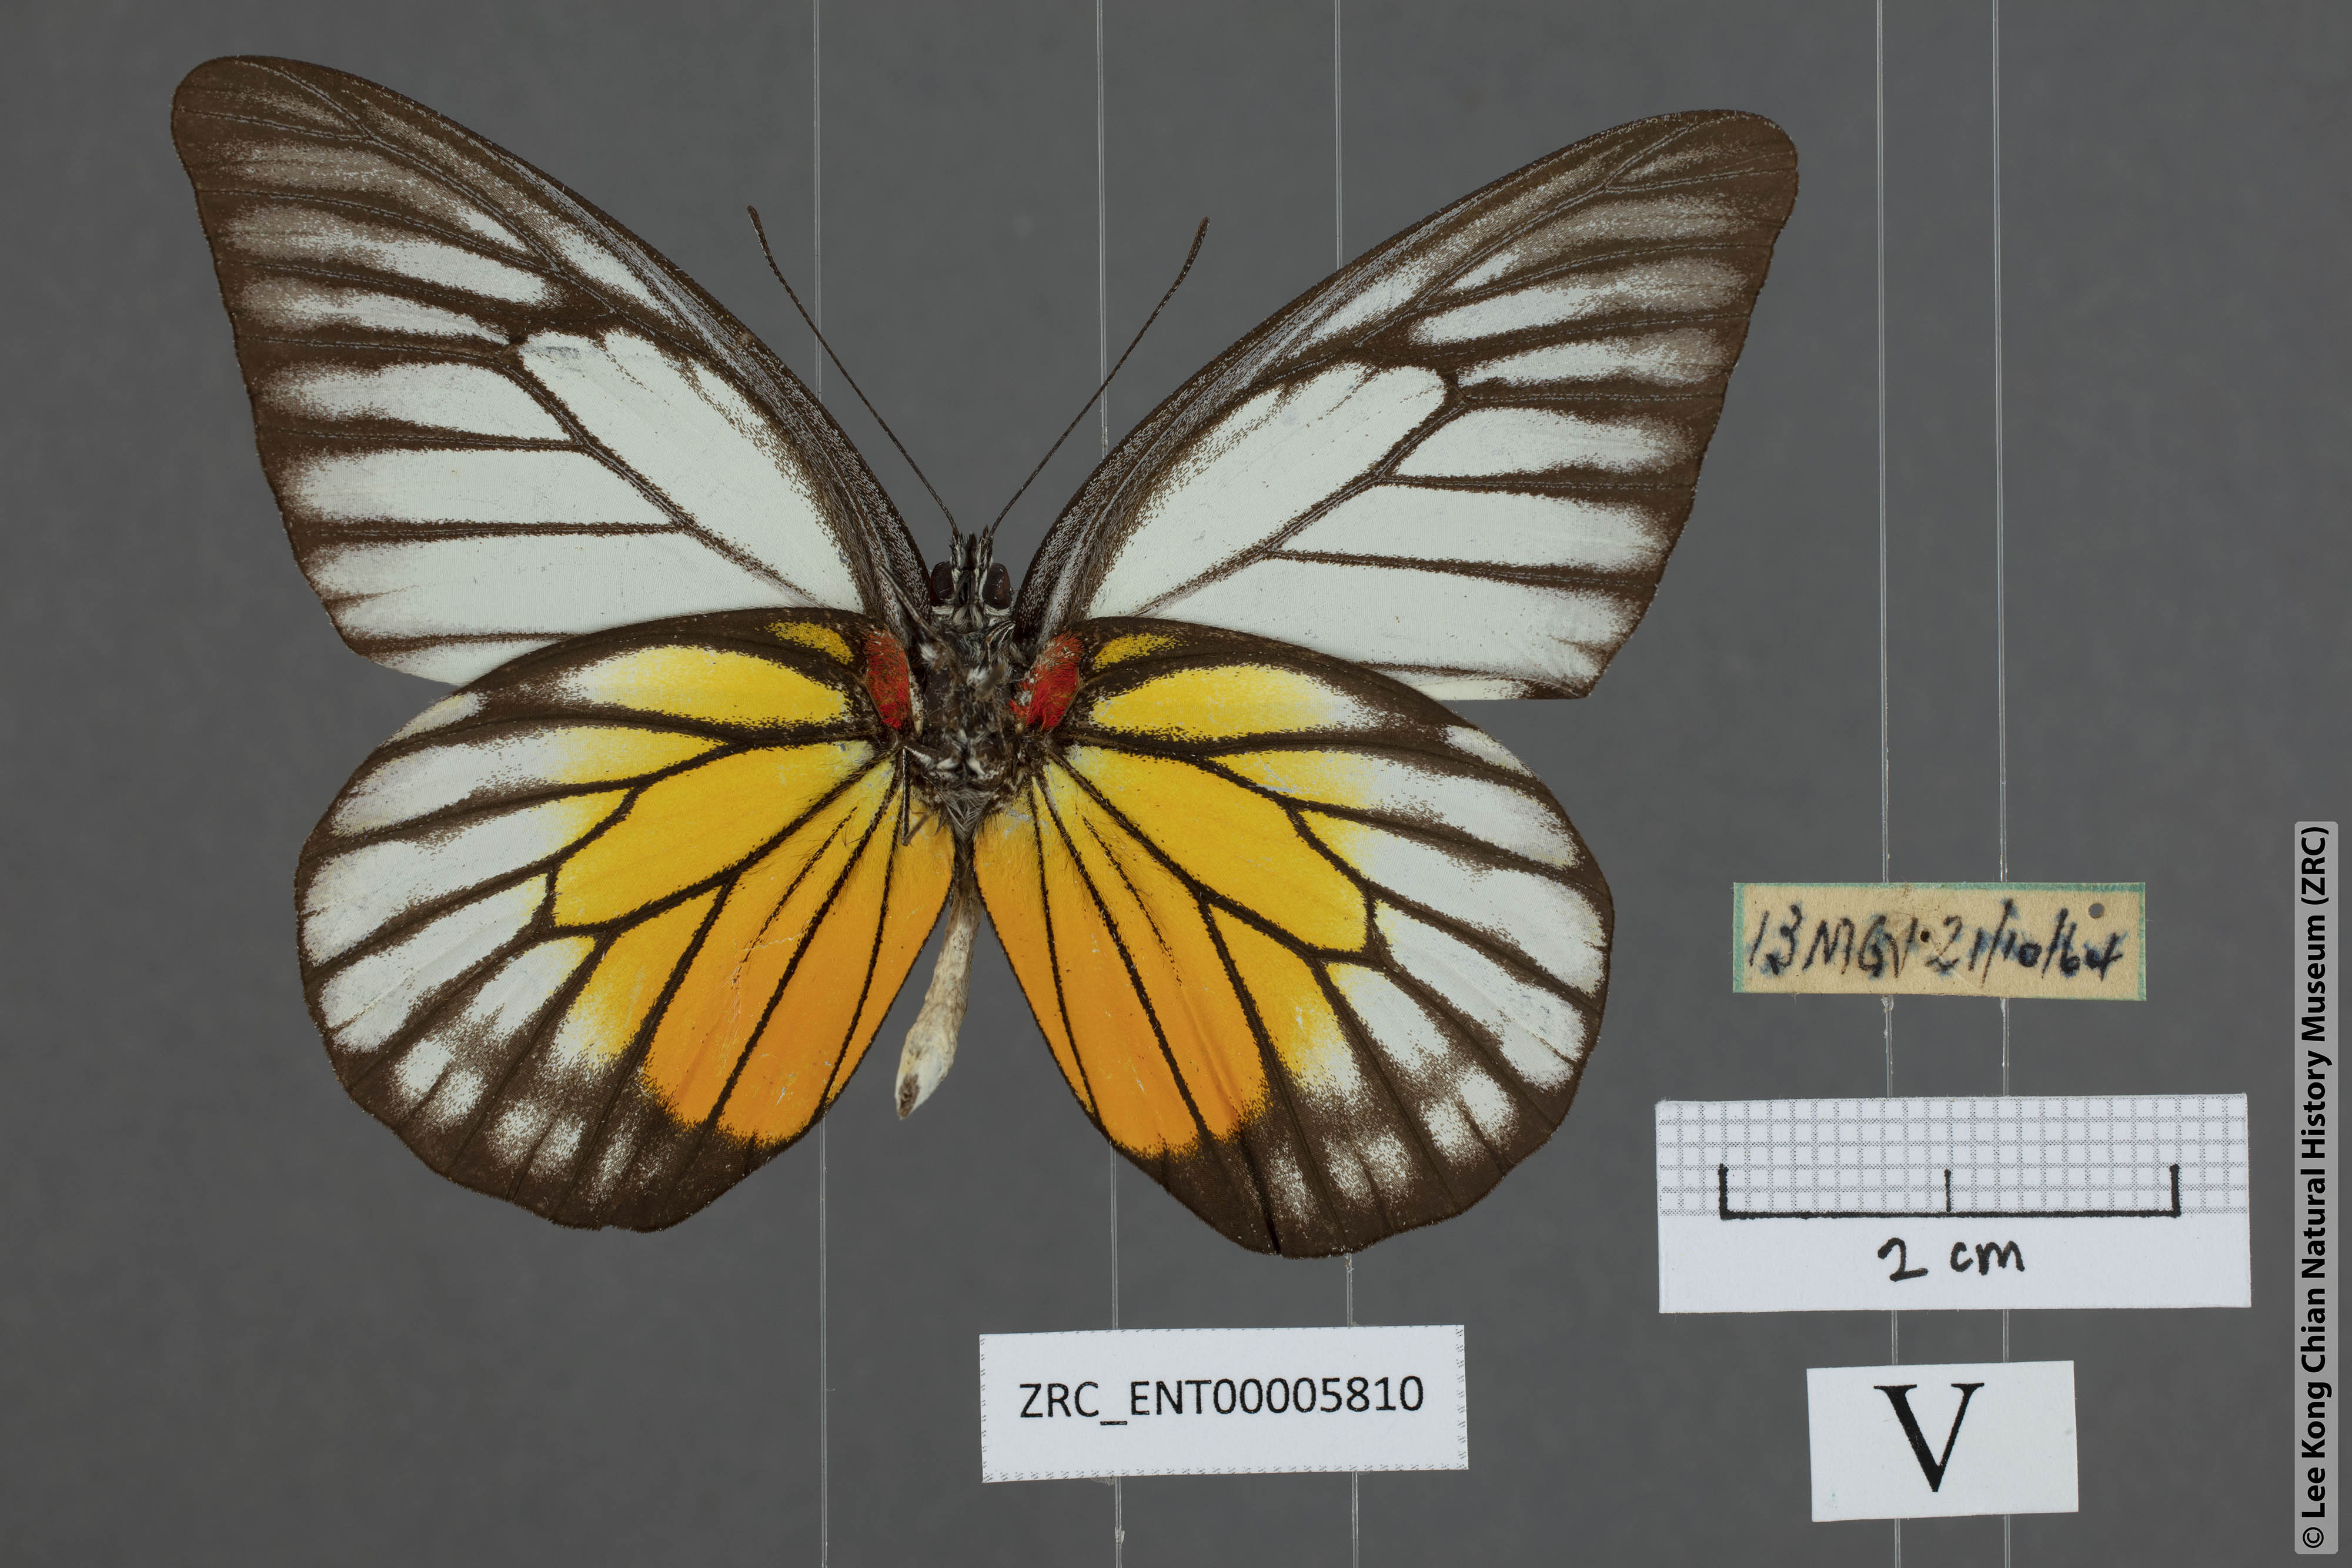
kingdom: Animalia
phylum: Arthropoda
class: Insecta
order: Lepidoptera
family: Pieridae
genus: Prioneris
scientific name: Prioneris philonome
